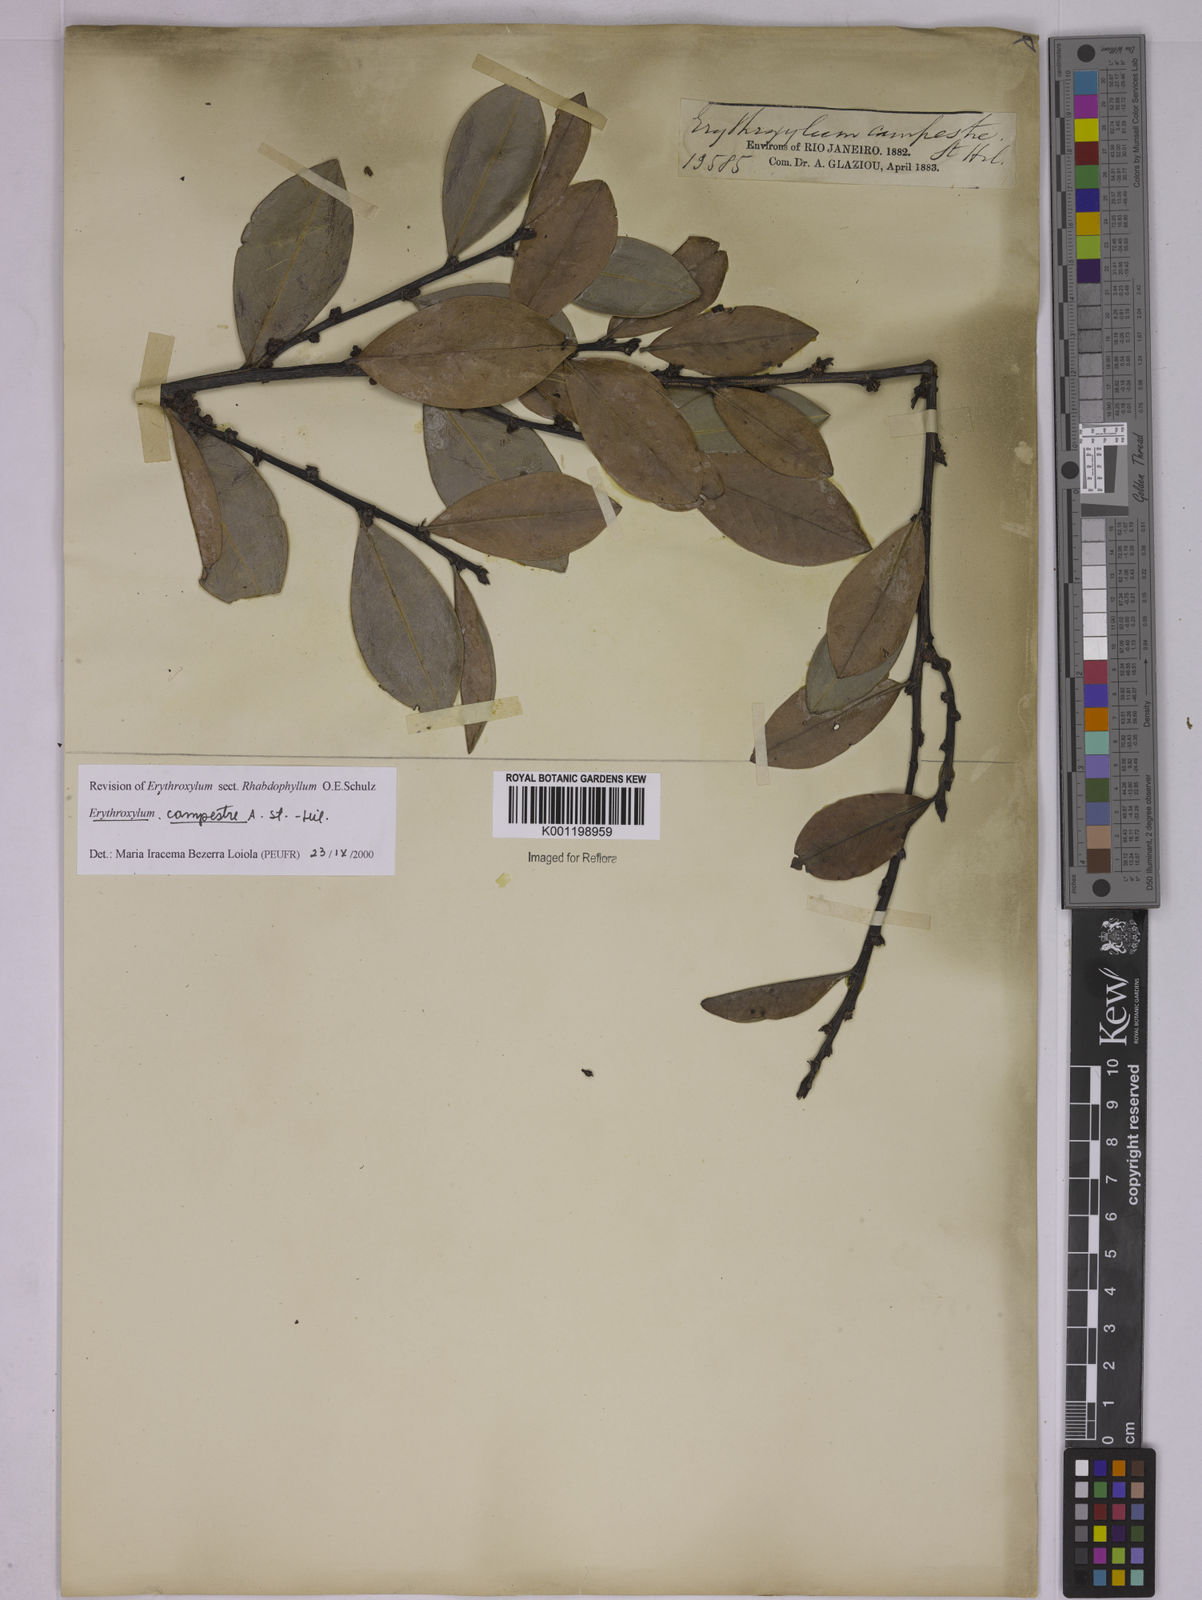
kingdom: Plantae
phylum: Tracheophyta
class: Magnoliopsida
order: Malpighiales
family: Erythroxylaceae
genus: Erythroxylum
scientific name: Erythroxylum campestre
